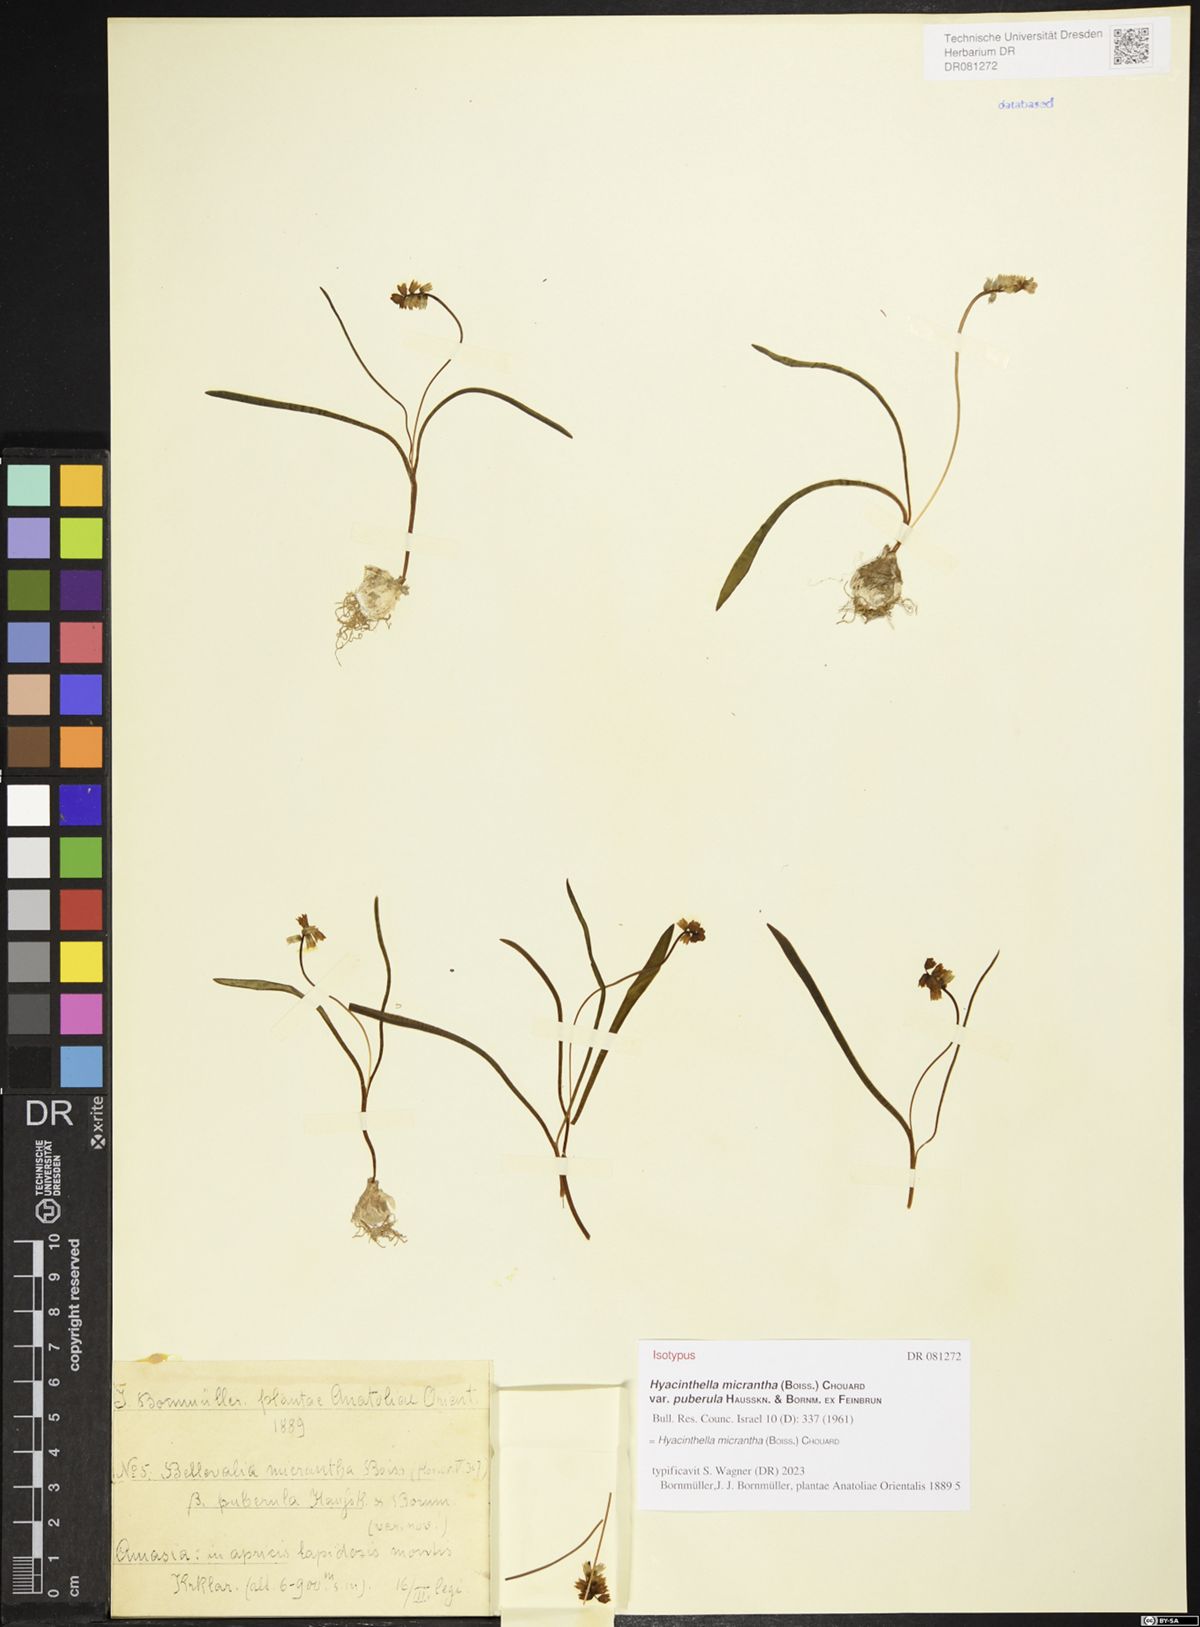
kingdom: Plantae
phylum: Tracheophyta
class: Liliopsida
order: Asparagales
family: Asparagaceae
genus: Hyacinthella
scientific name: Hyacinthella micrantha
